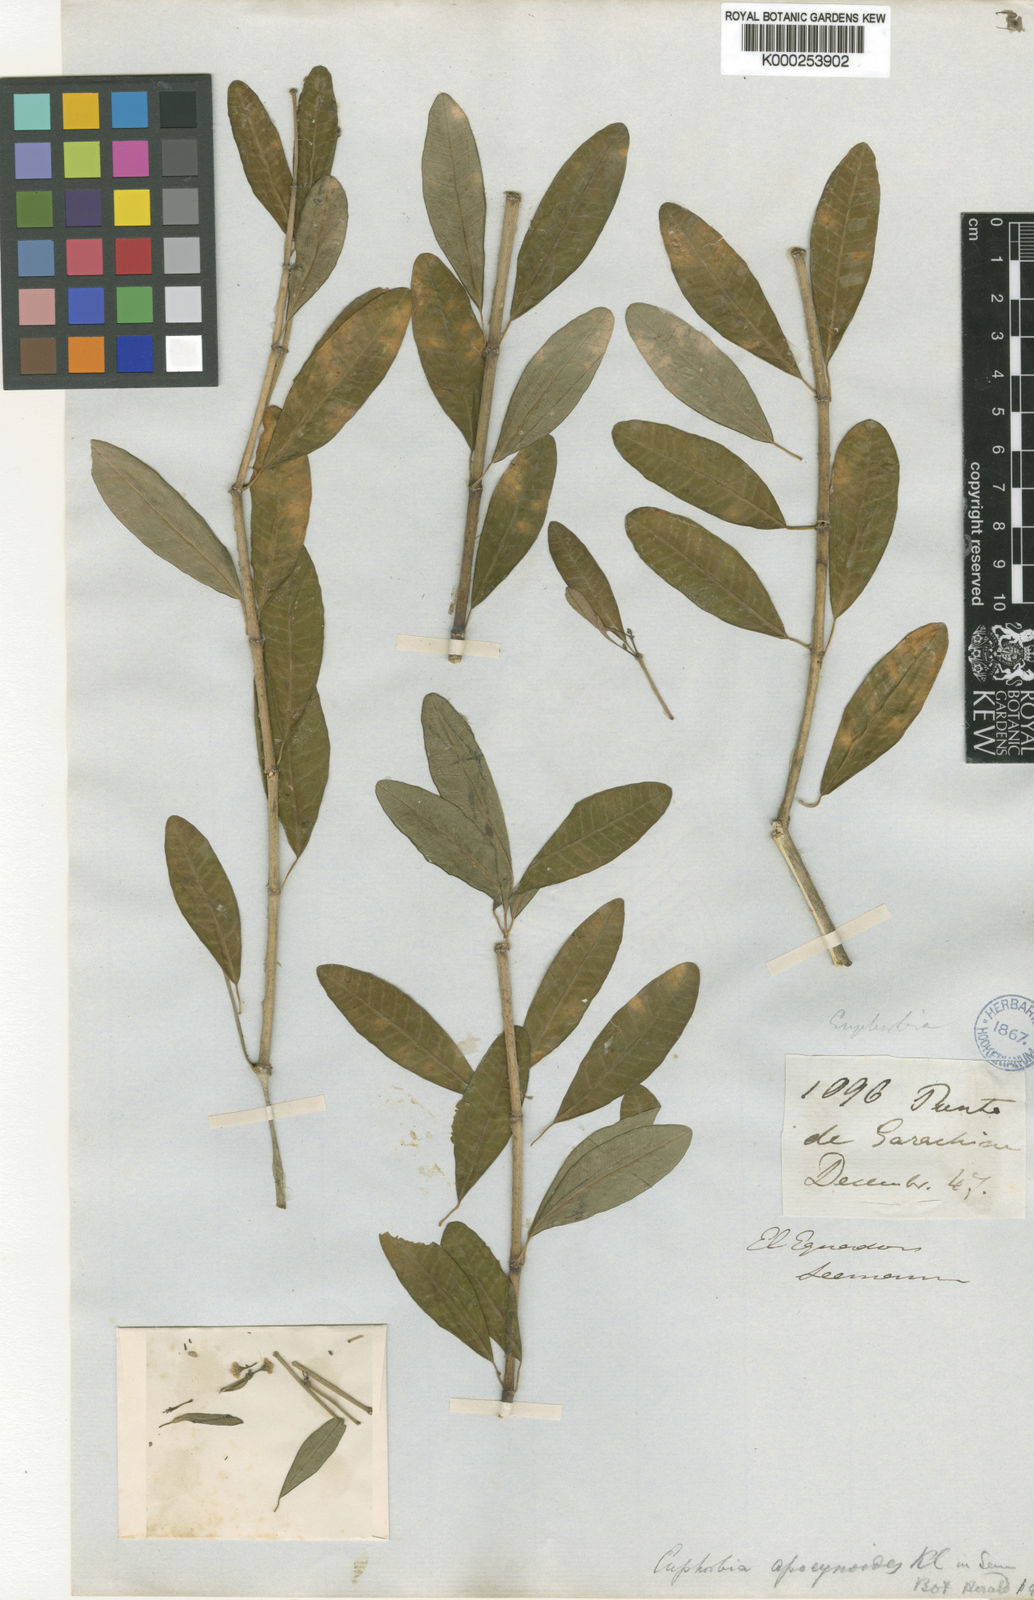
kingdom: Plantae
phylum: Tracheophyta
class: Magnoliopsida
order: Malpighiales
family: Euphorbiaceae
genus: Euphorbia
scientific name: Euphorbia apocynoides
